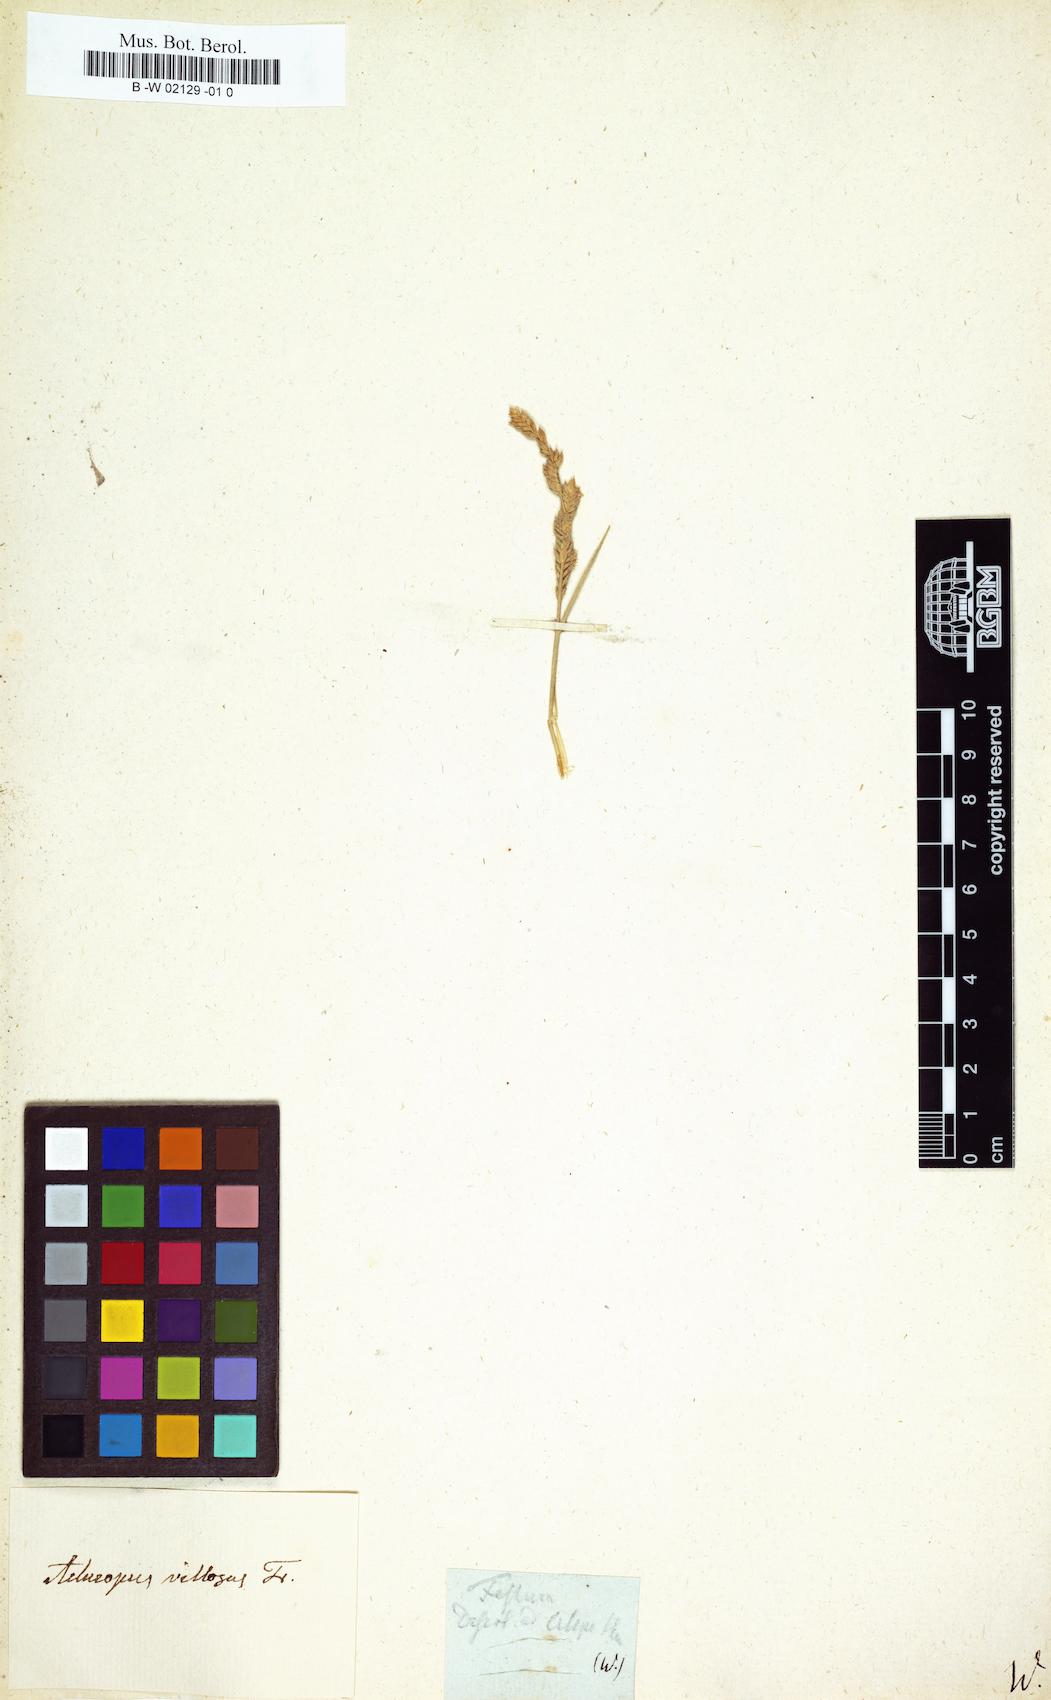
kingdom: Plantae
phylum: Tracheophyta
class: Liliopsida
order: Poales
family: Poaceae
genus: Festuca
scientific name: Festuca
